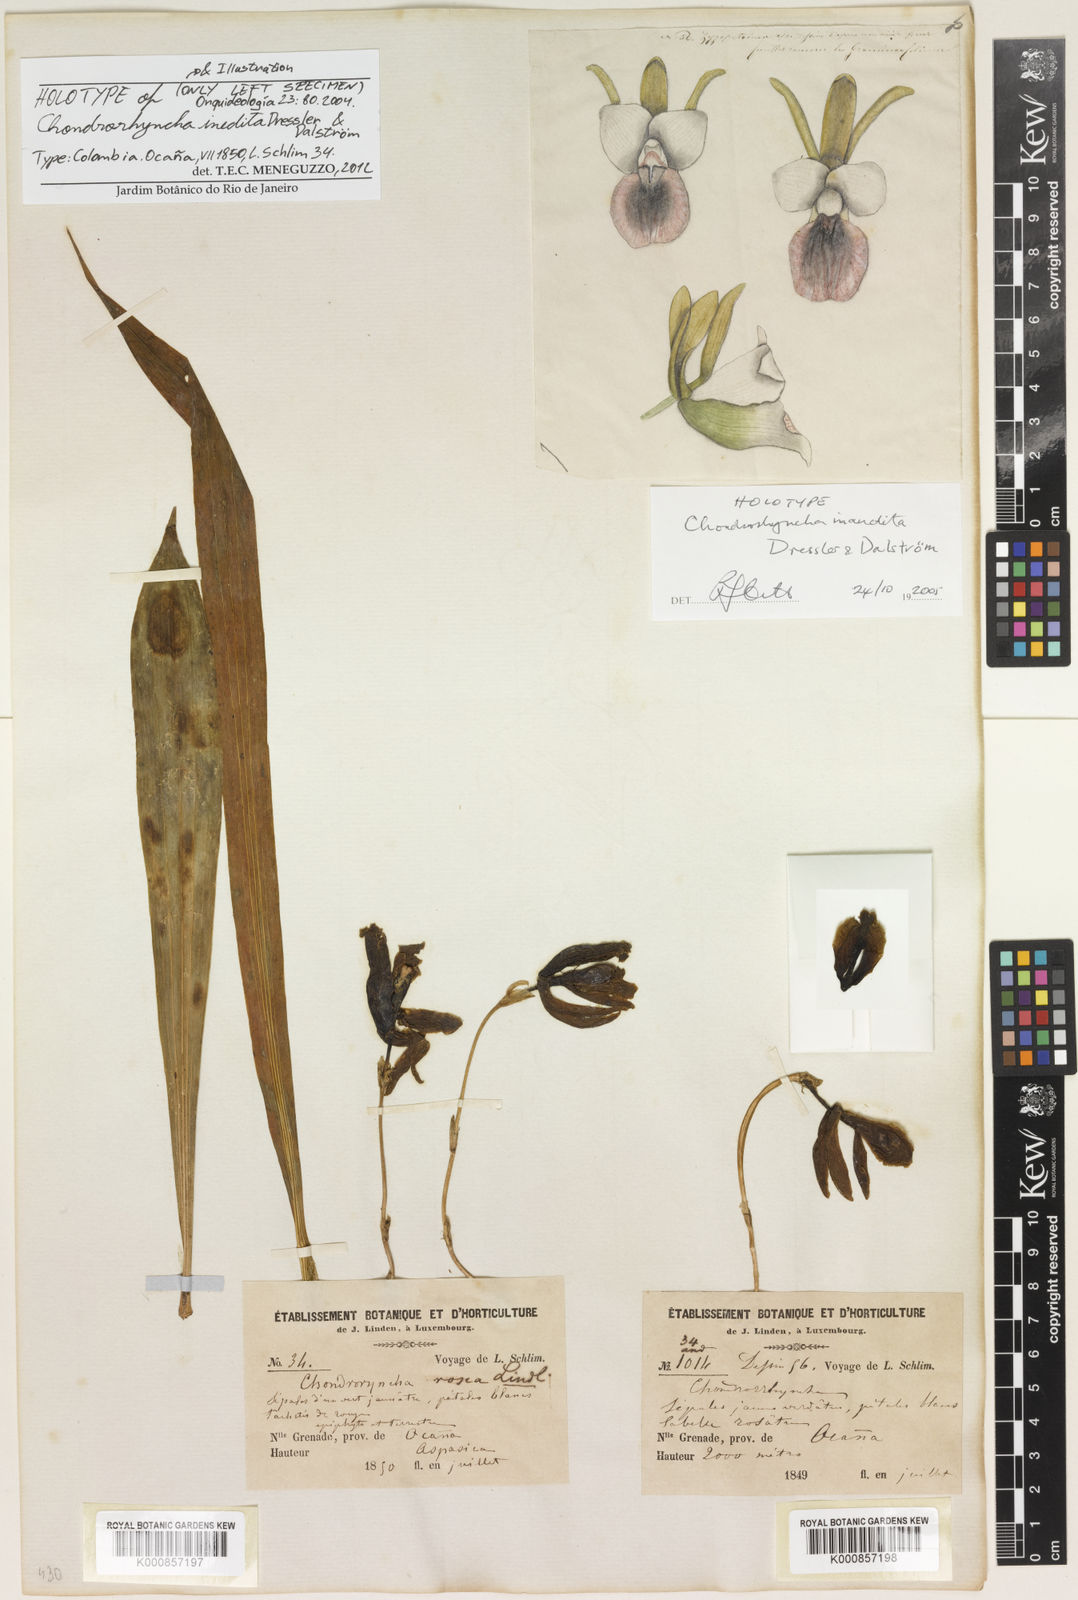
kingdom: Plantae
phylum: Tracheophyta
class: Liliopsida
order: Asparagales
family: Orchidaceae
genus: Chondrorhyncha
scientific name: Chondrorhyncha
